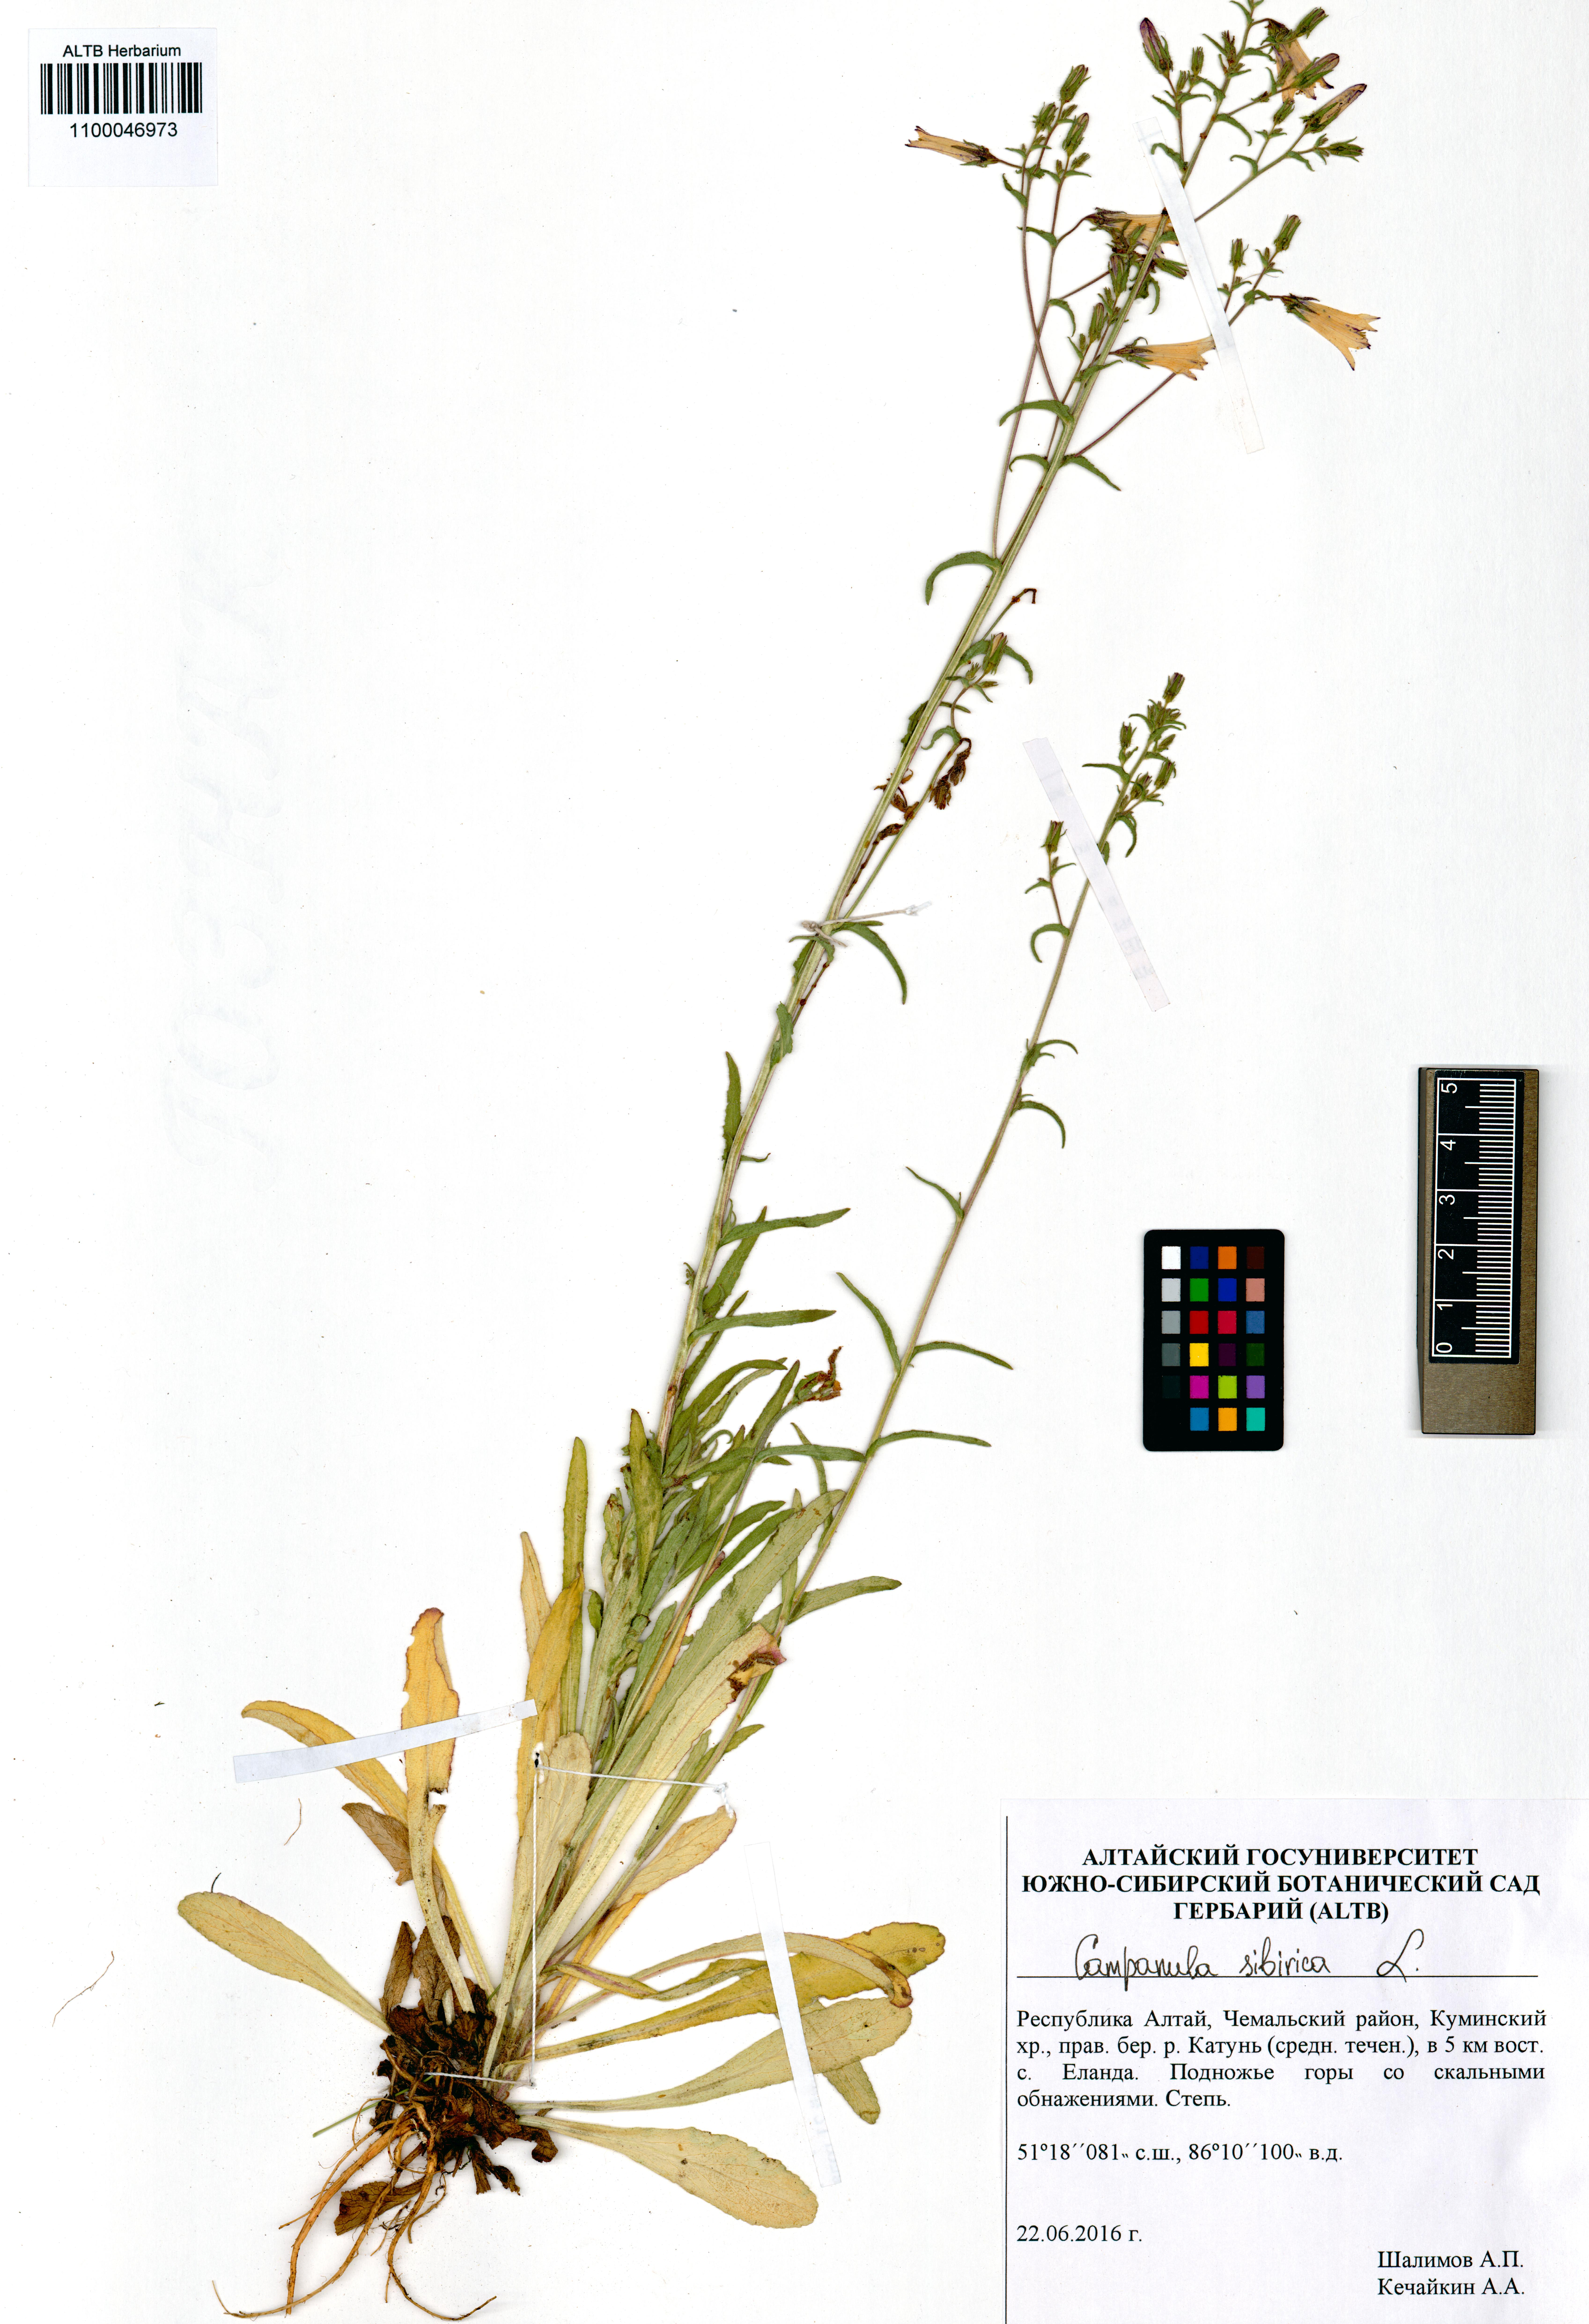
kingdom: Plantae
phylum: Tracheophyta
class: Magnoliopsida
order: Asterales
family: Campanulaceae
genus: Campanula
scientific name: Campanula sibirica
